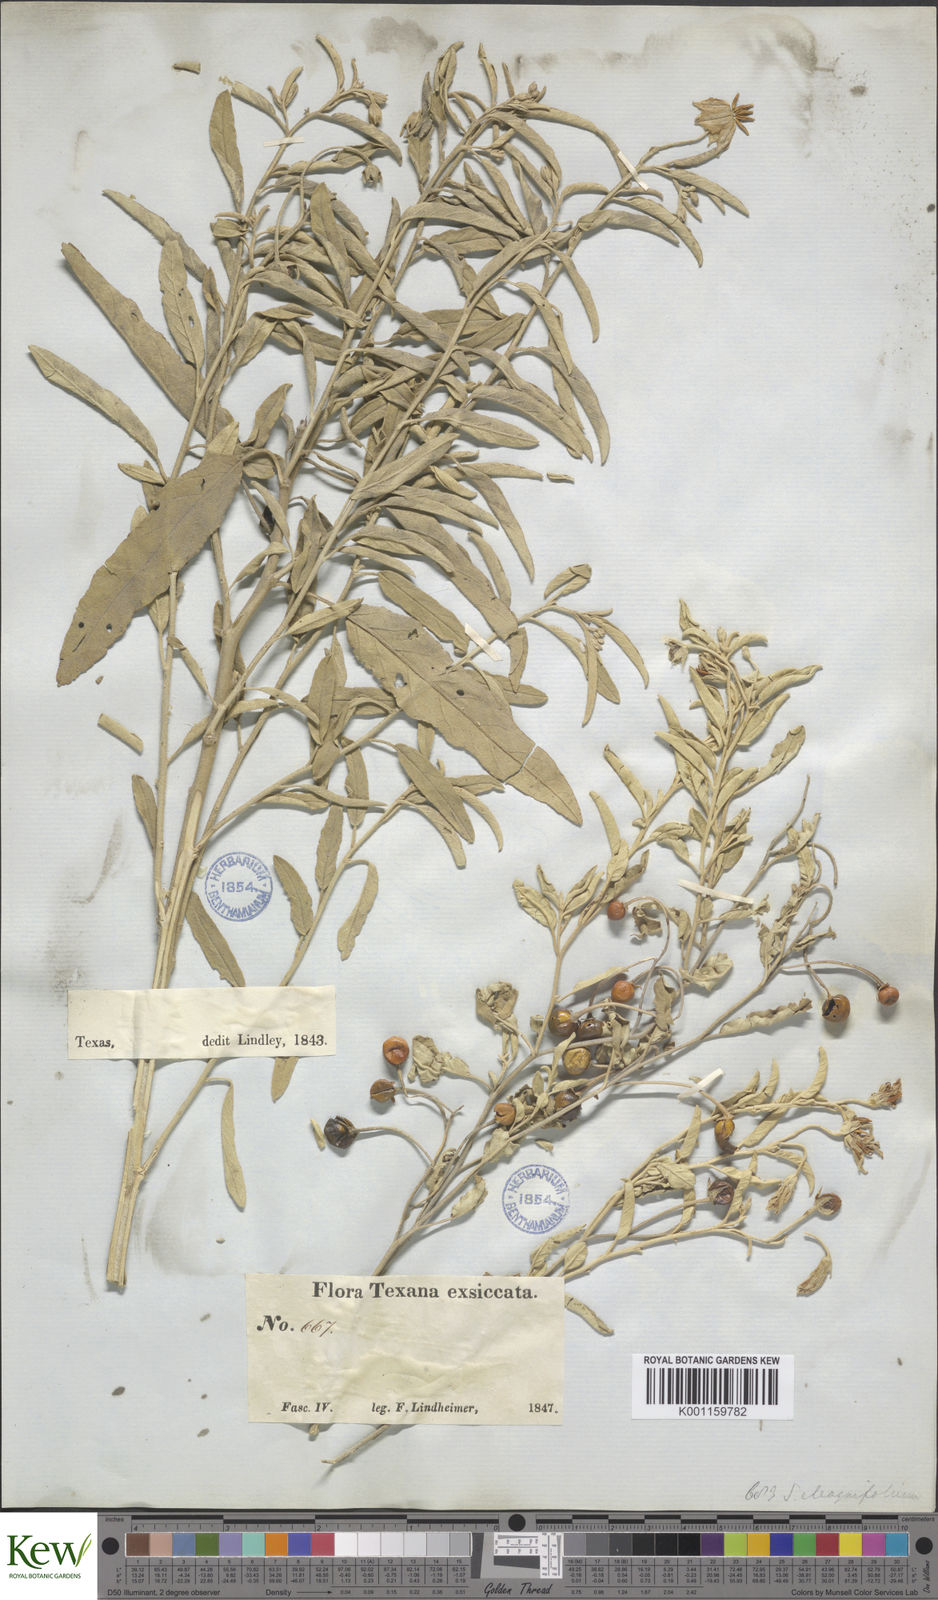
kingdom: Plantae
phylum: Tracheophyta
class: Magnoliopsida
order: Solanales
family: Solanaceae
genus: Solanum
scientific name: Solanum
